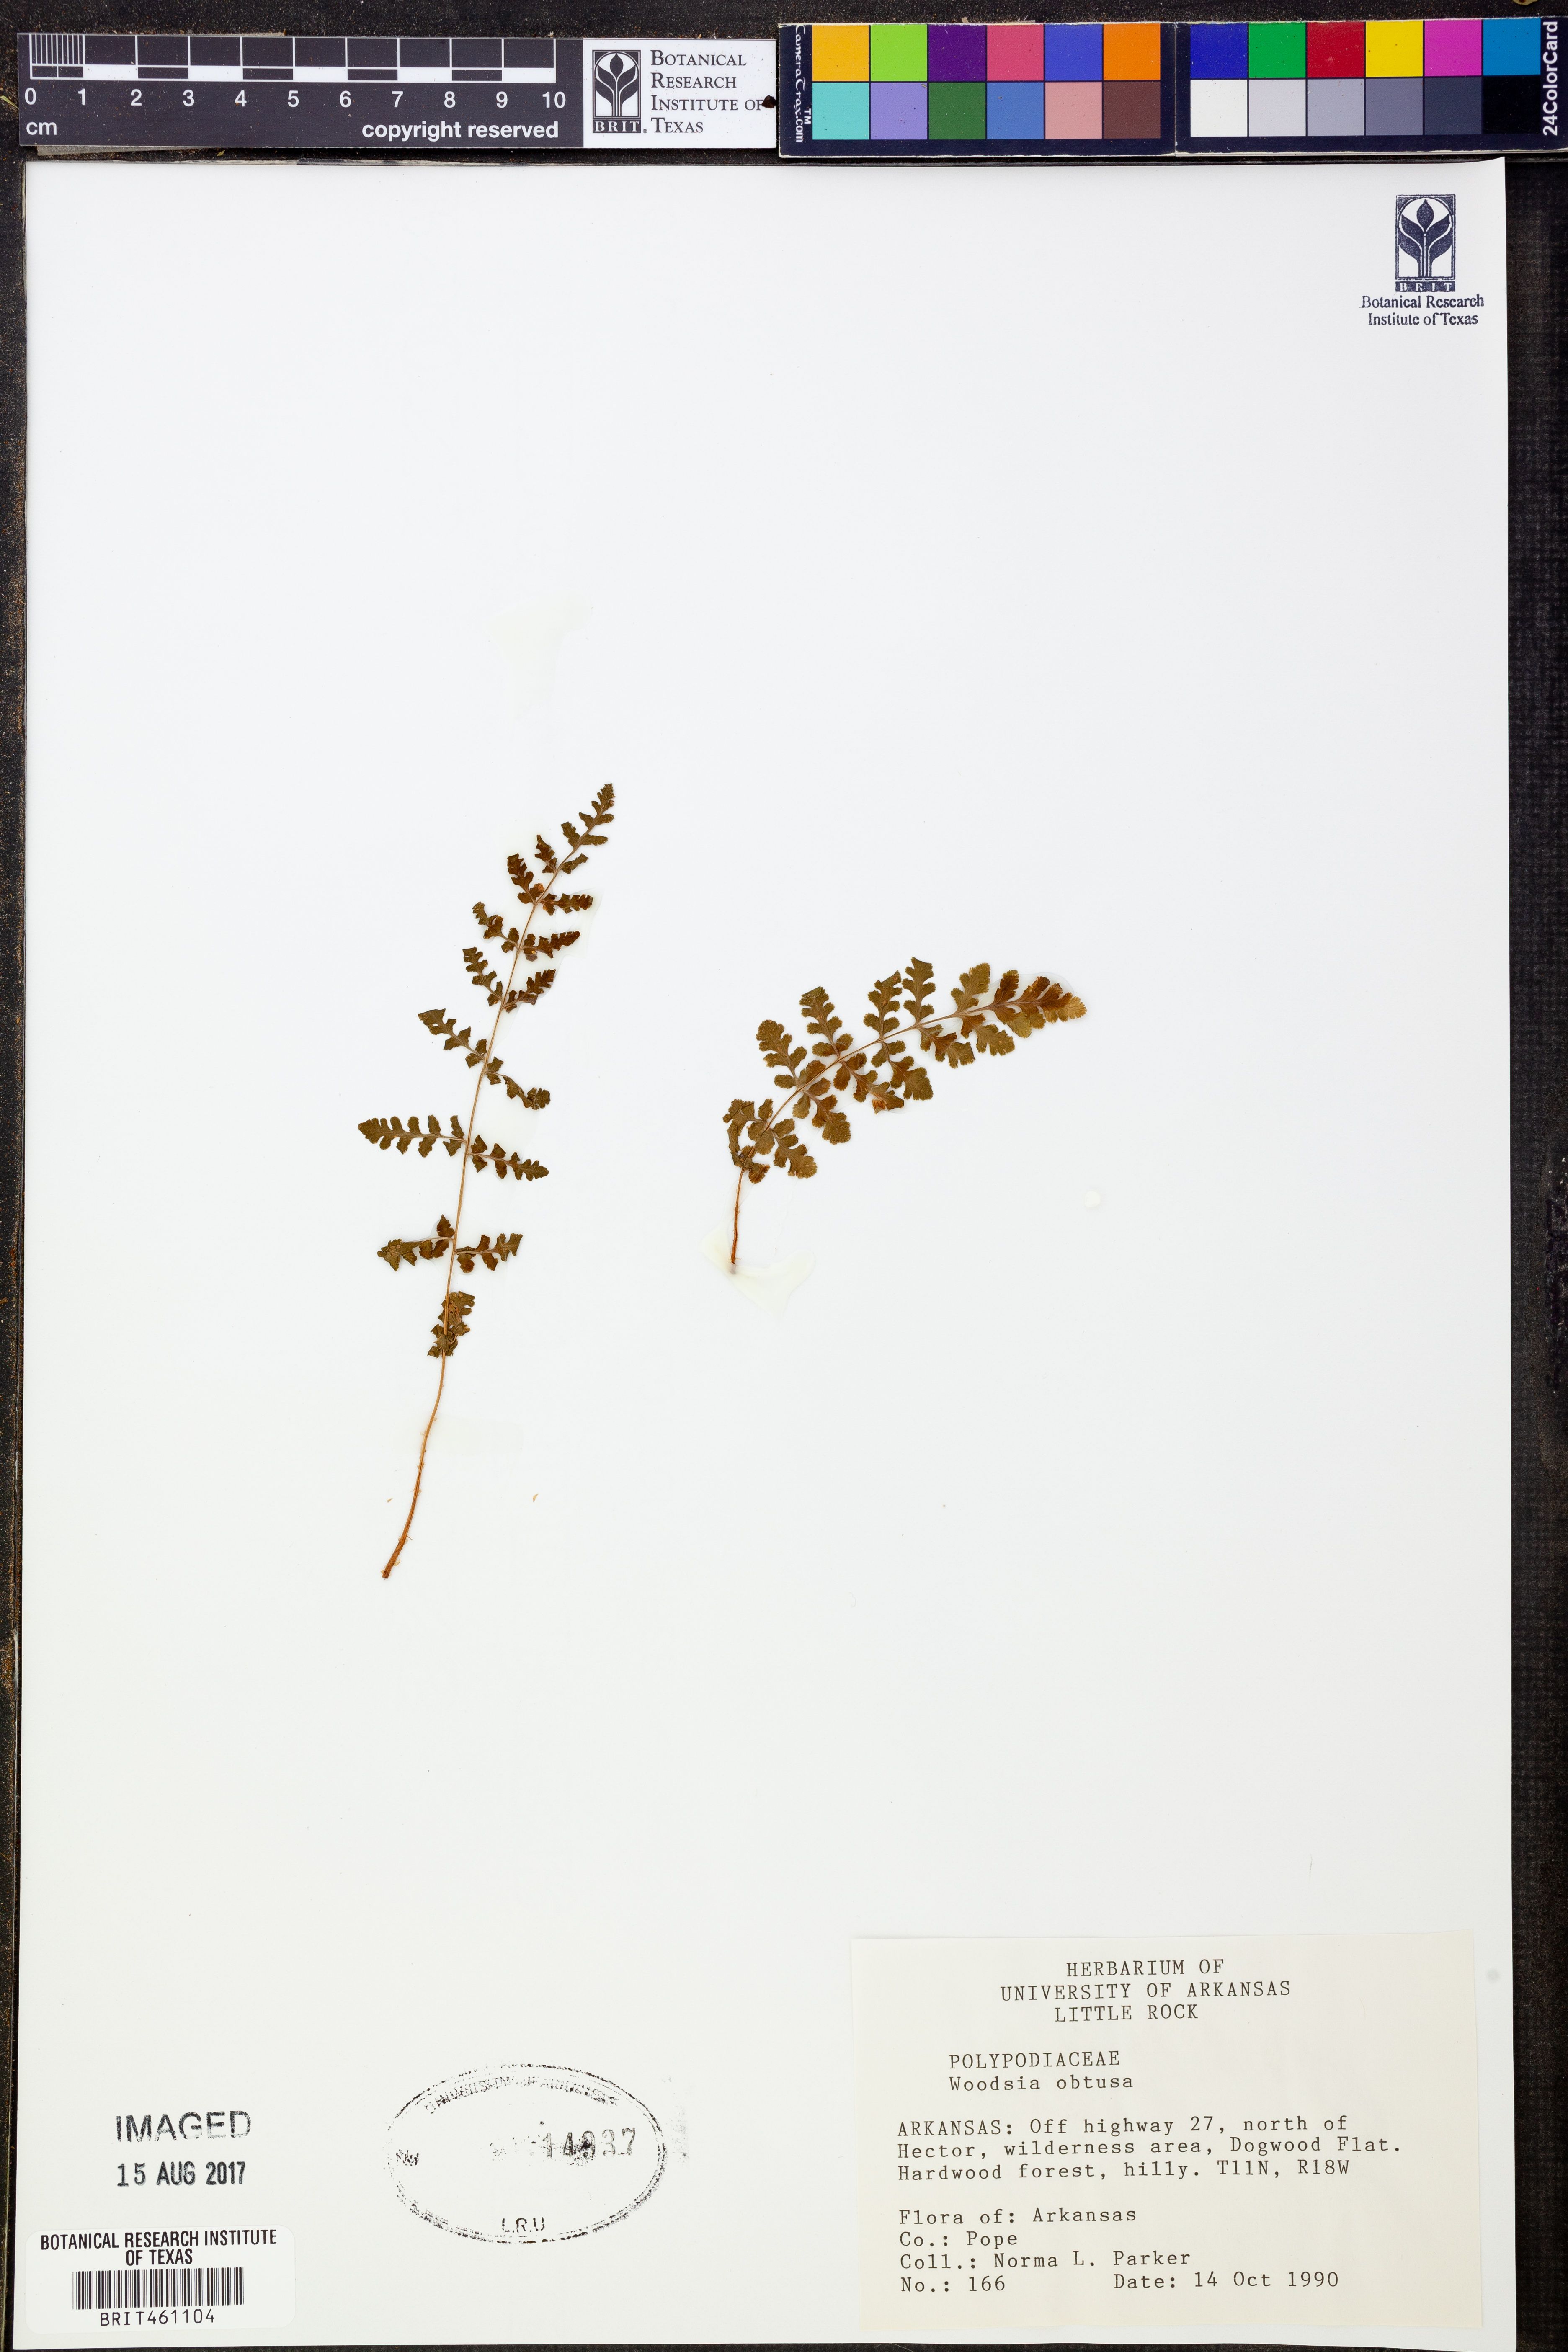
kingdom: Plantae
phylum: Tracheophyta
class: Polypodiopsida
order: Polypodiales
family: Woodsiaceae
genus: Physematium
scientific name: Physematium obtusum
